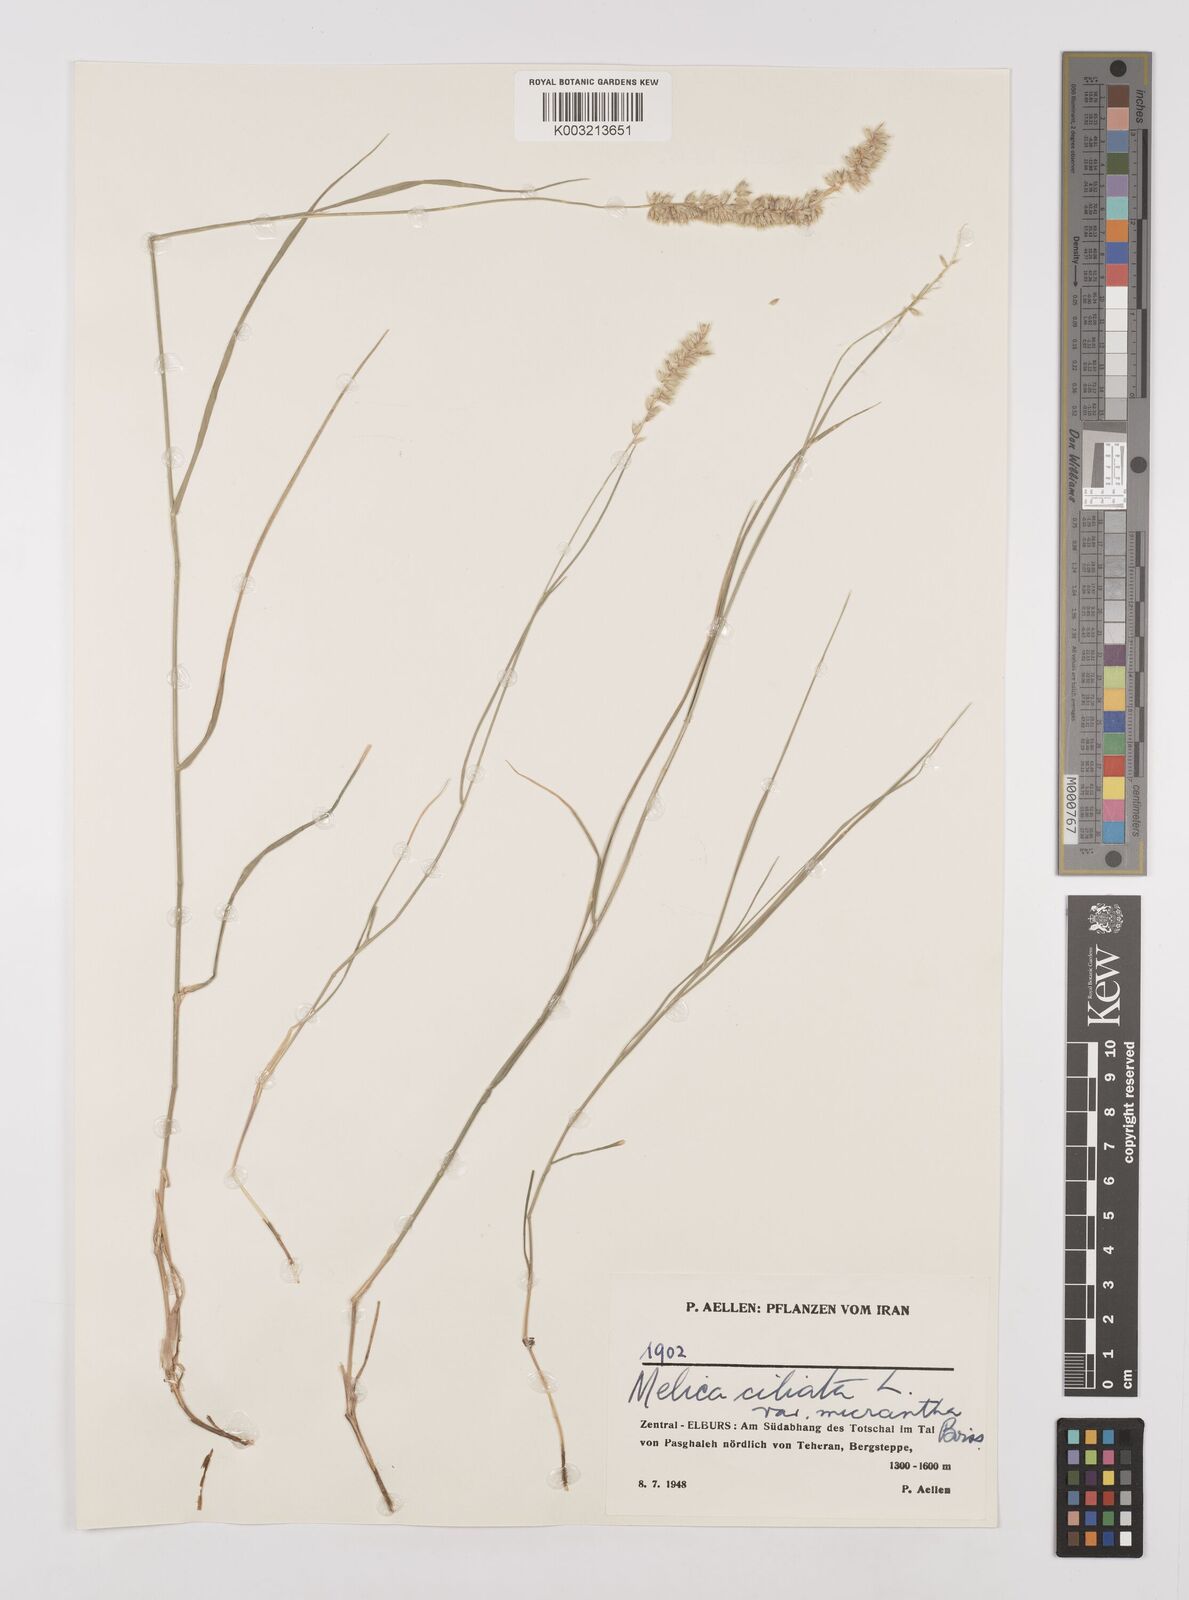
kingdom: Plantae
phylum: Tracheophyta
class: Liliopsida
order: Poales
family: Poaceae
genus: Melica
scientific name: Melica ciliata
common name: Hairy melicgrass
